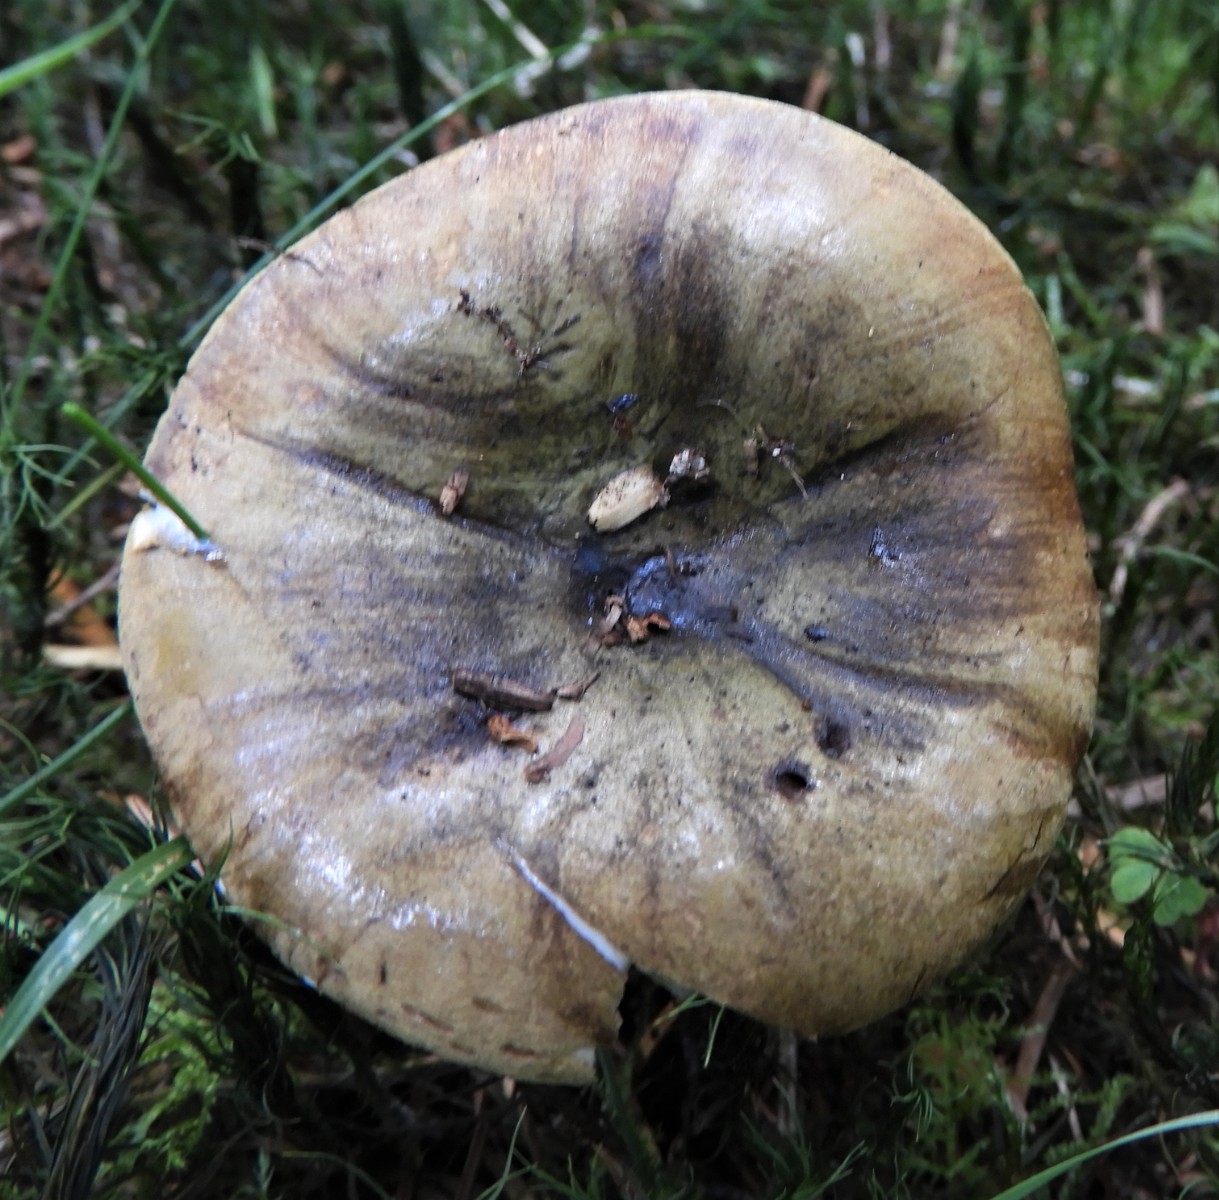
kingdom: Fungi
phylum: Basidiomycota
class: Agaricomycetes
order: Russulales
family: Russulaceae
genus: Lactarius
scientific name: Lactarius necator
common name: manddraber-mælkehat
